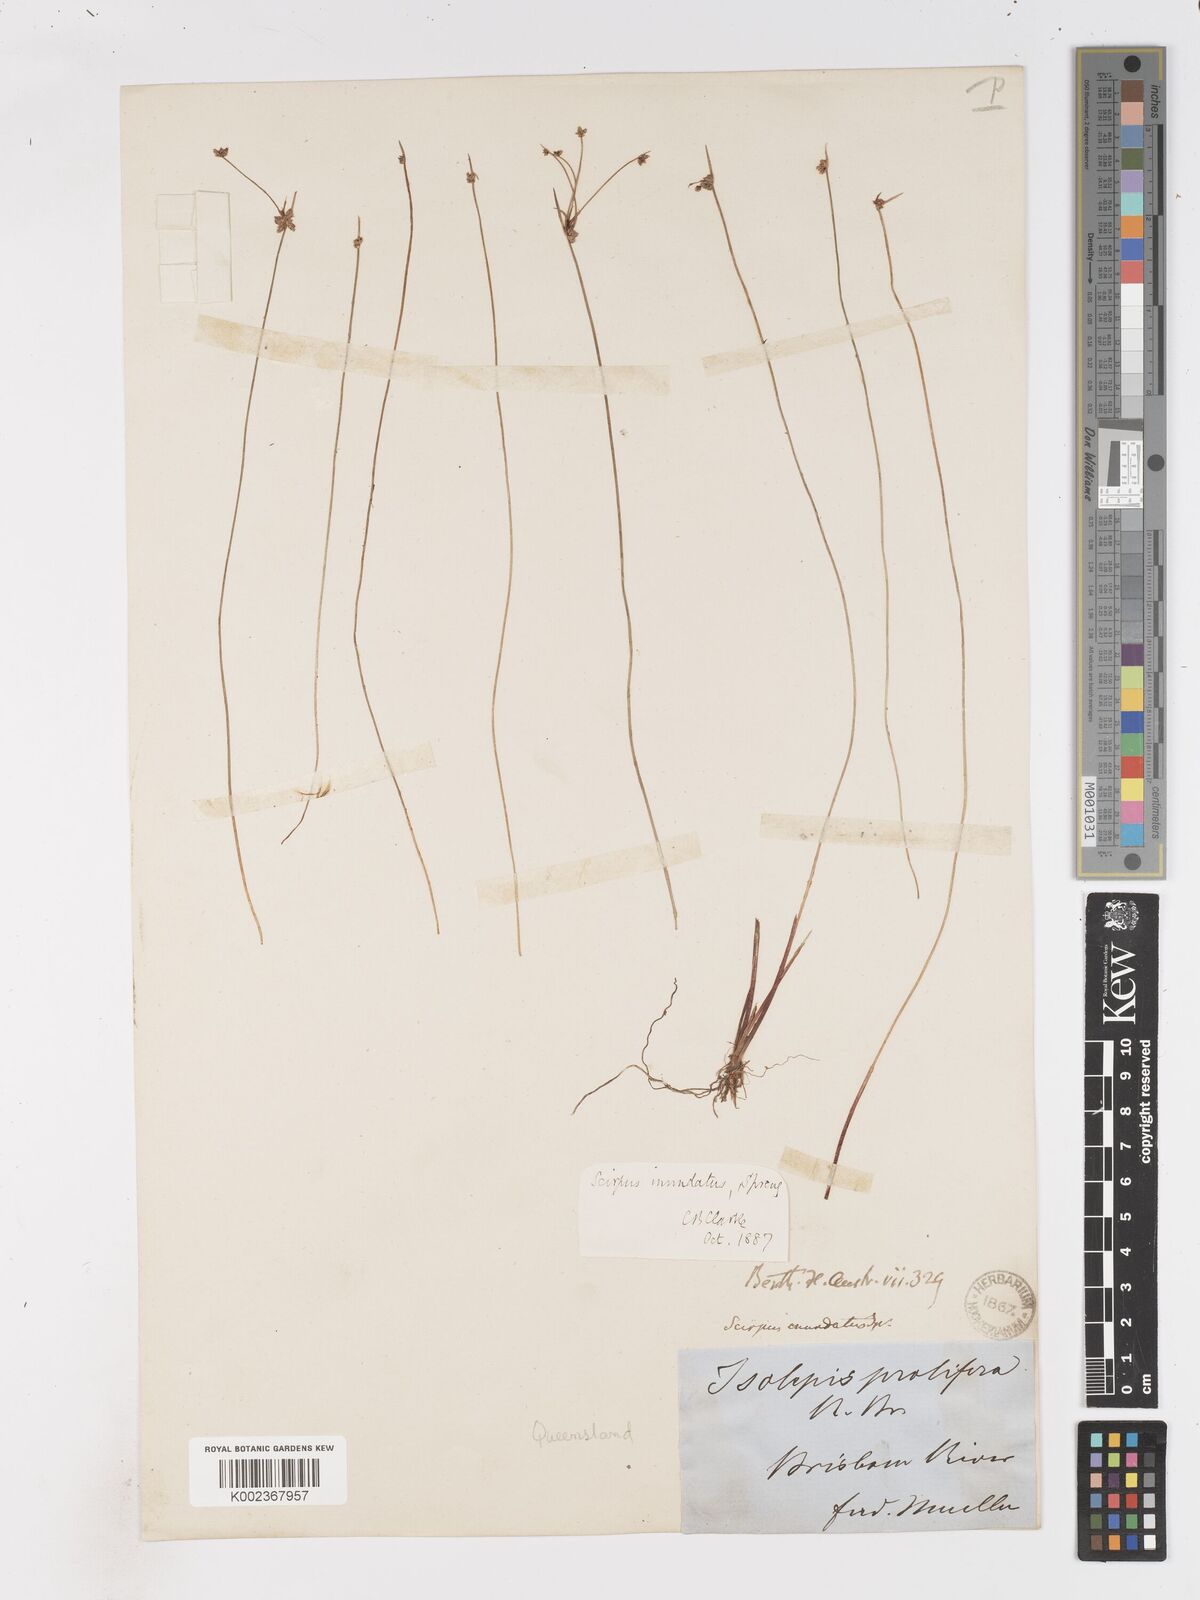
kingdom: Plantae
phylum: Tracheophyta
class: Liliopsida
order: Poales
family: Cyperaceae
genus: Isolepis
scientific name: Isolepis inundata
